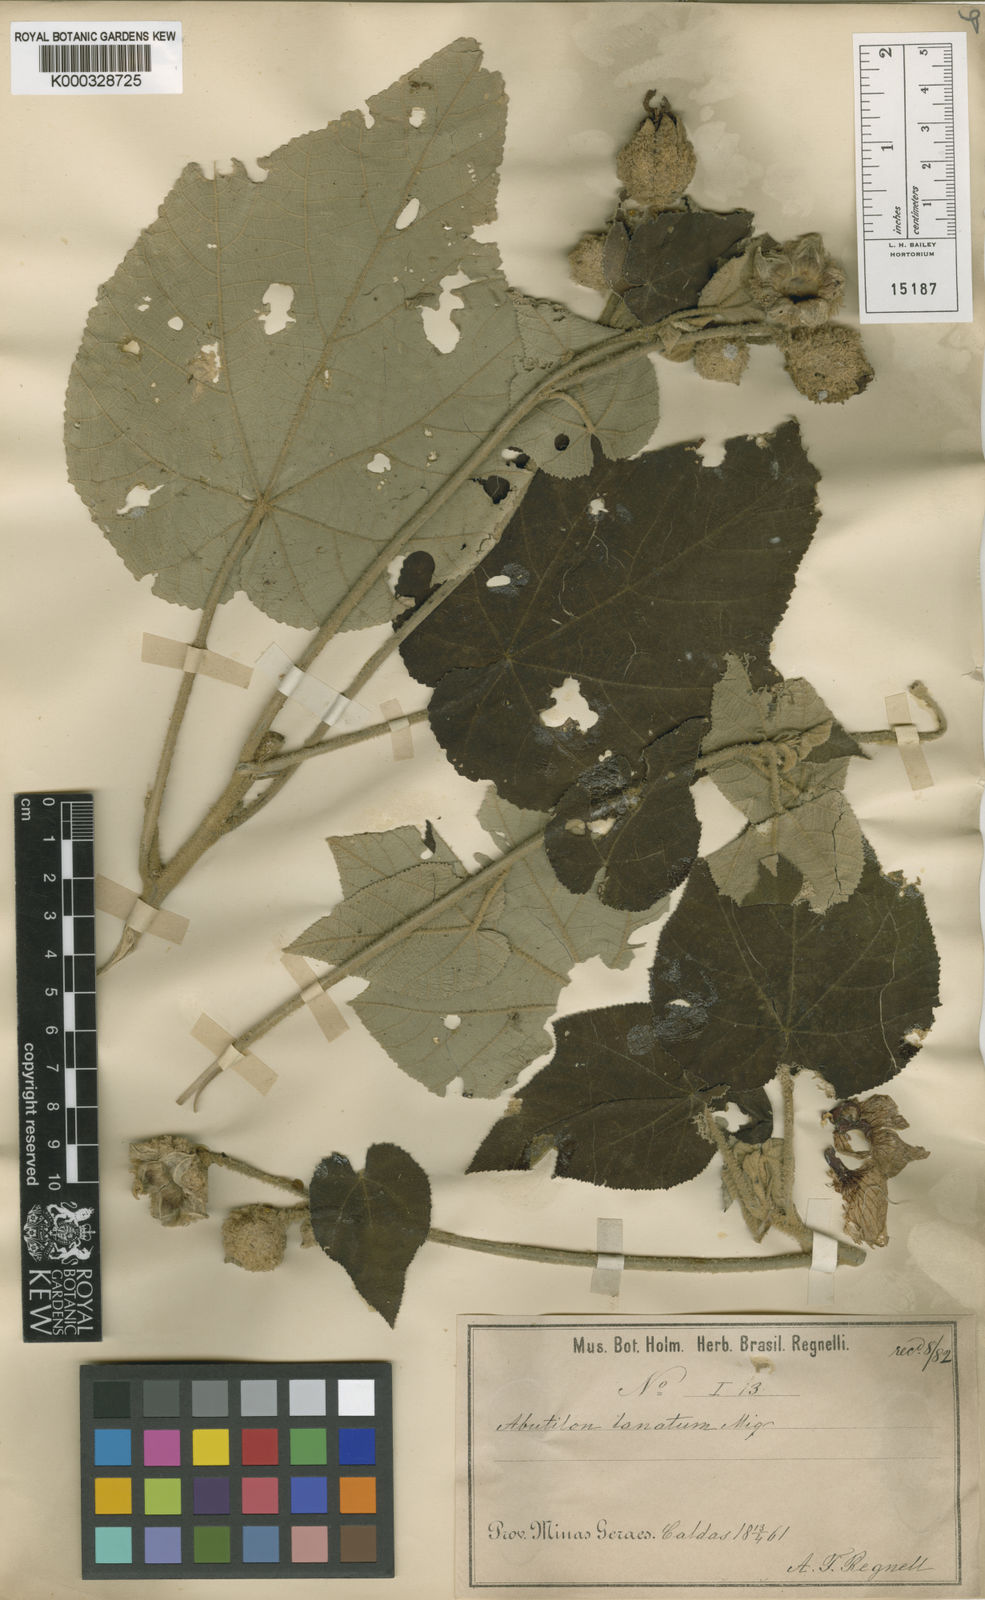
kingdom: Plantae
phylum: Tracheophyta
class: Magnoliopsida
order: Malvales
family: Malvaceae
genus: Callianthe
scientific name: Callianthe lanata
